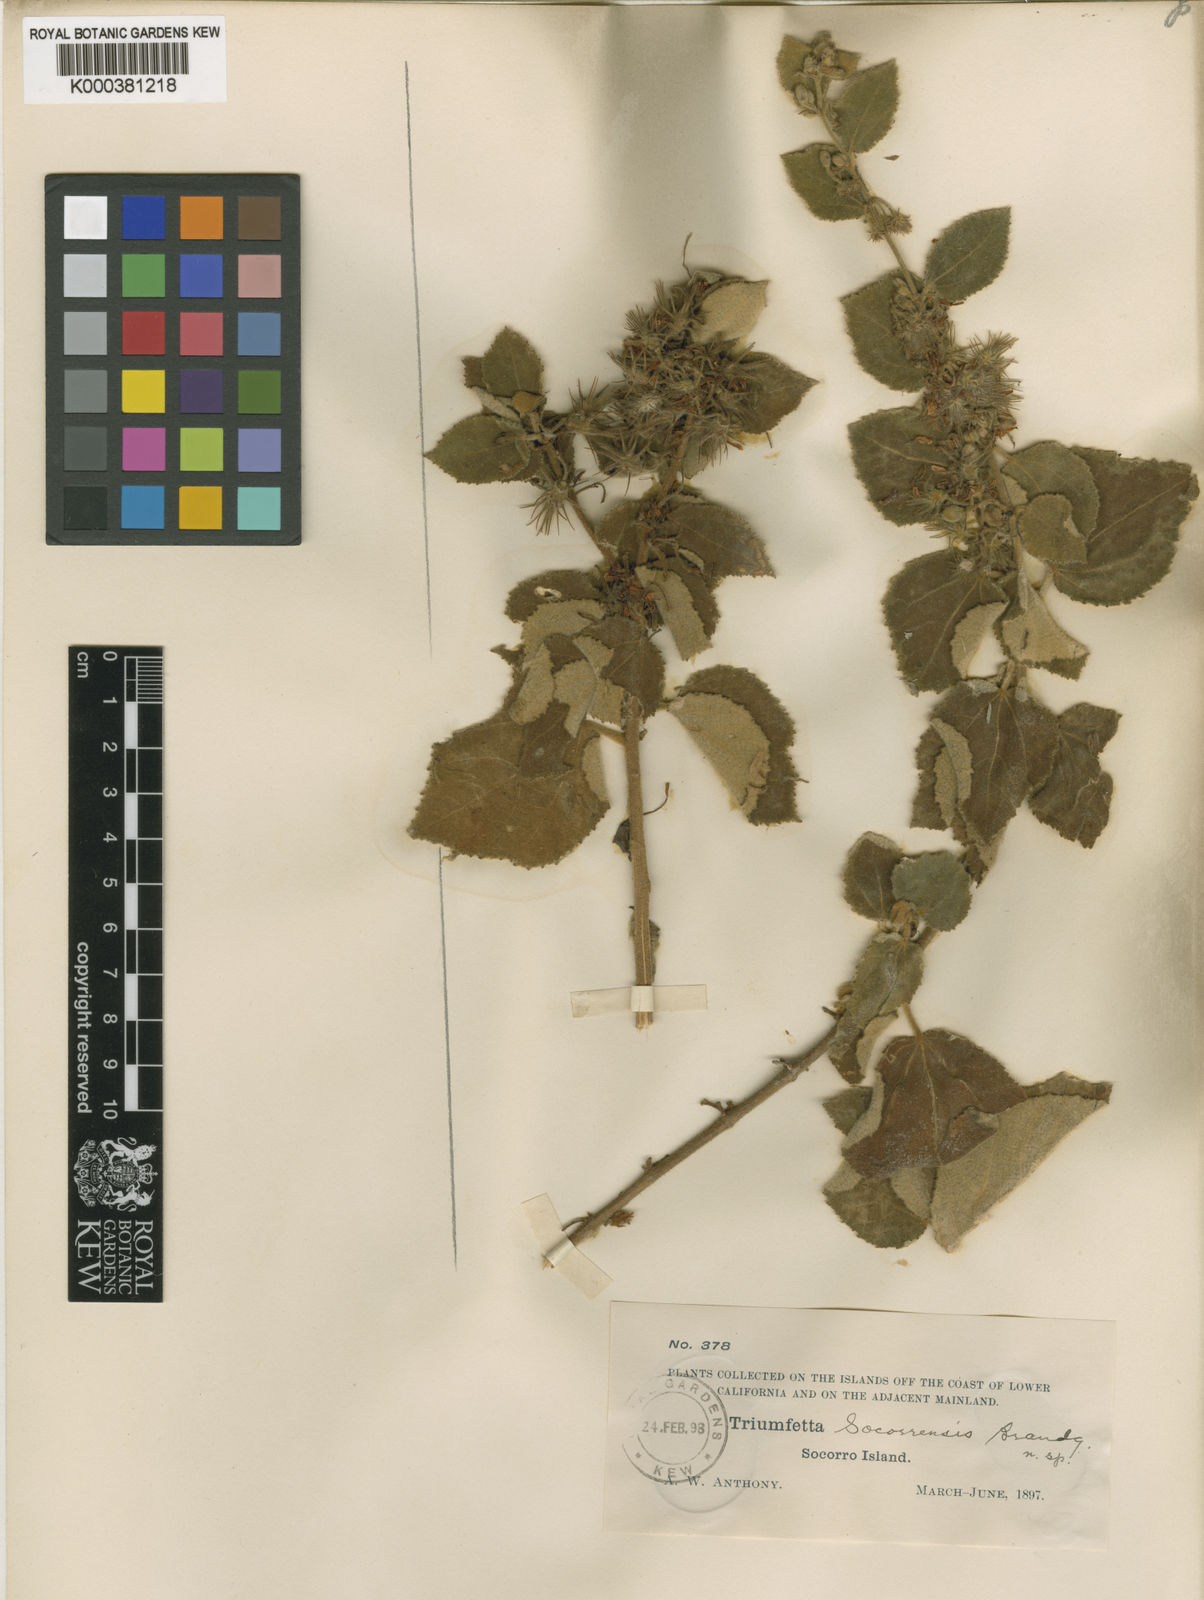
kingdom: Plantae
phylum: Tracheophyta
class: Magnoliopsida
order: Malvales
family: Malvaceae
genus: Triumfetta
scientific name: Triumfetta socorrensis
